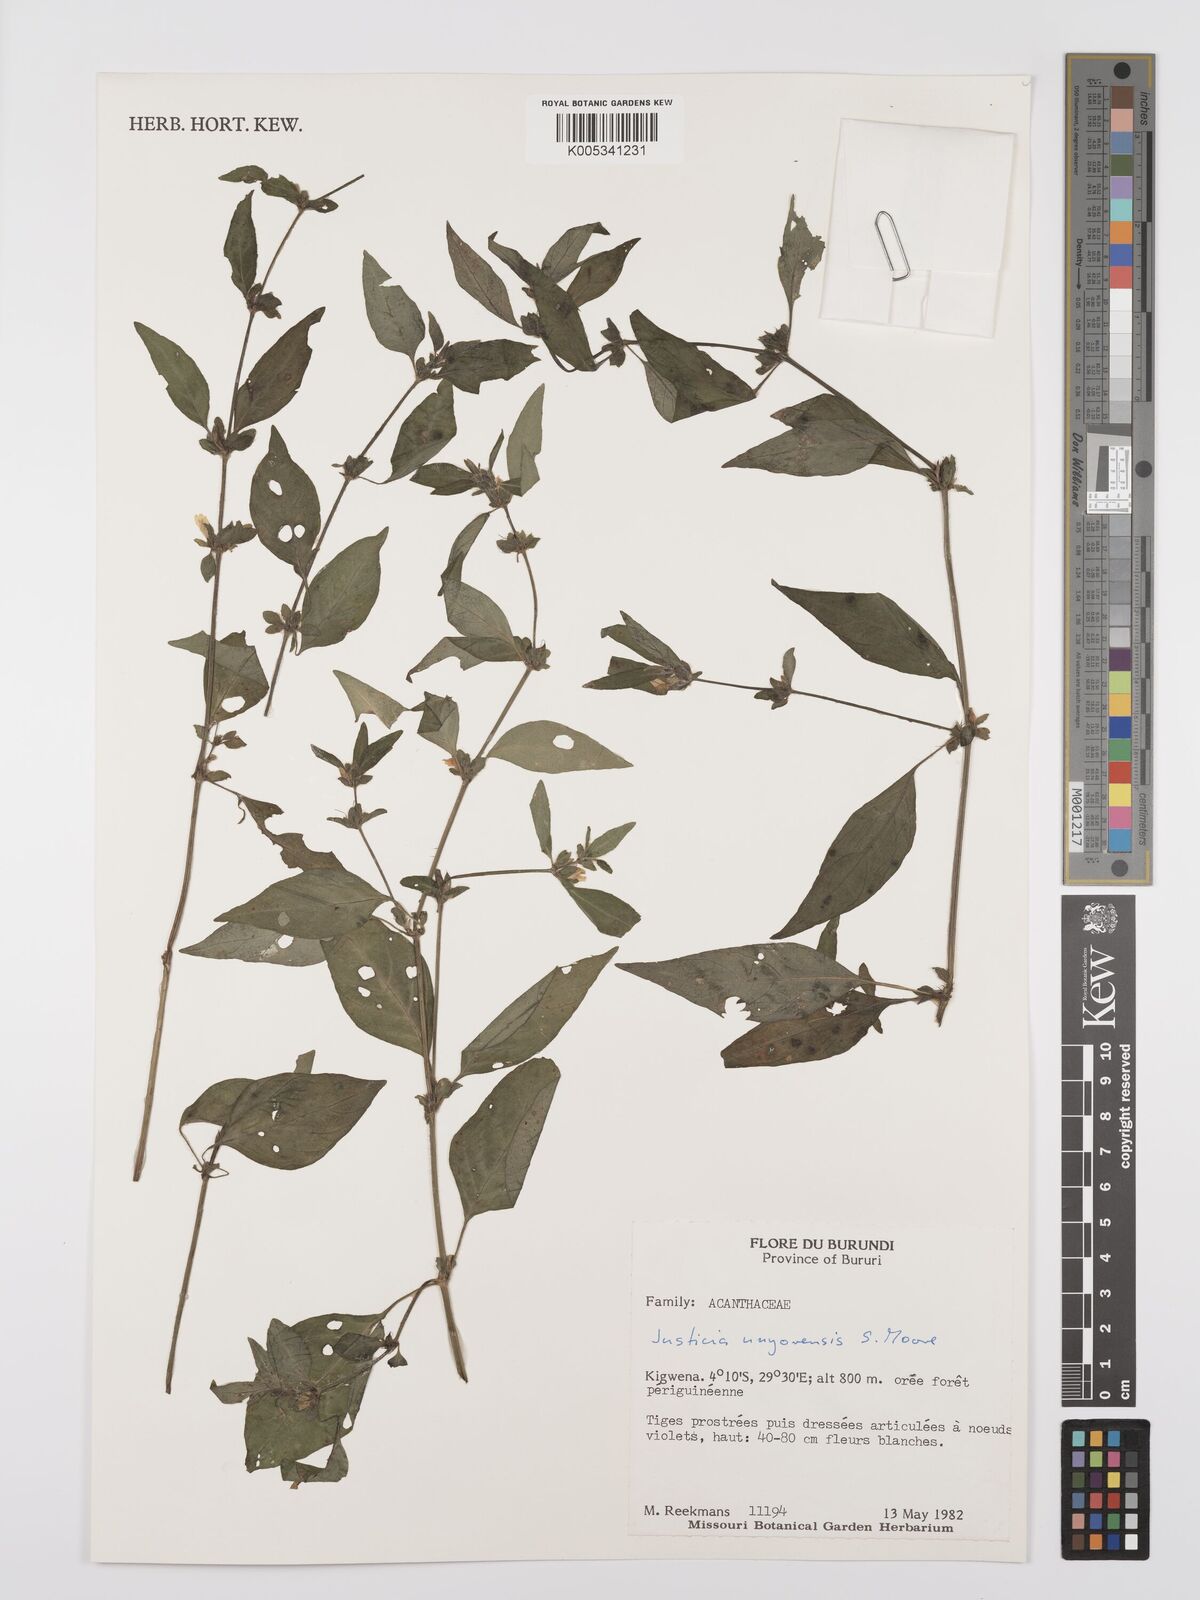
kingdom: Plantae
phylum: Tracheophyta
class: Magnoliopsida
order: Lamiales
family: Acanthaceae
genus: Justicia
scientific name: Justicia unyorensis
